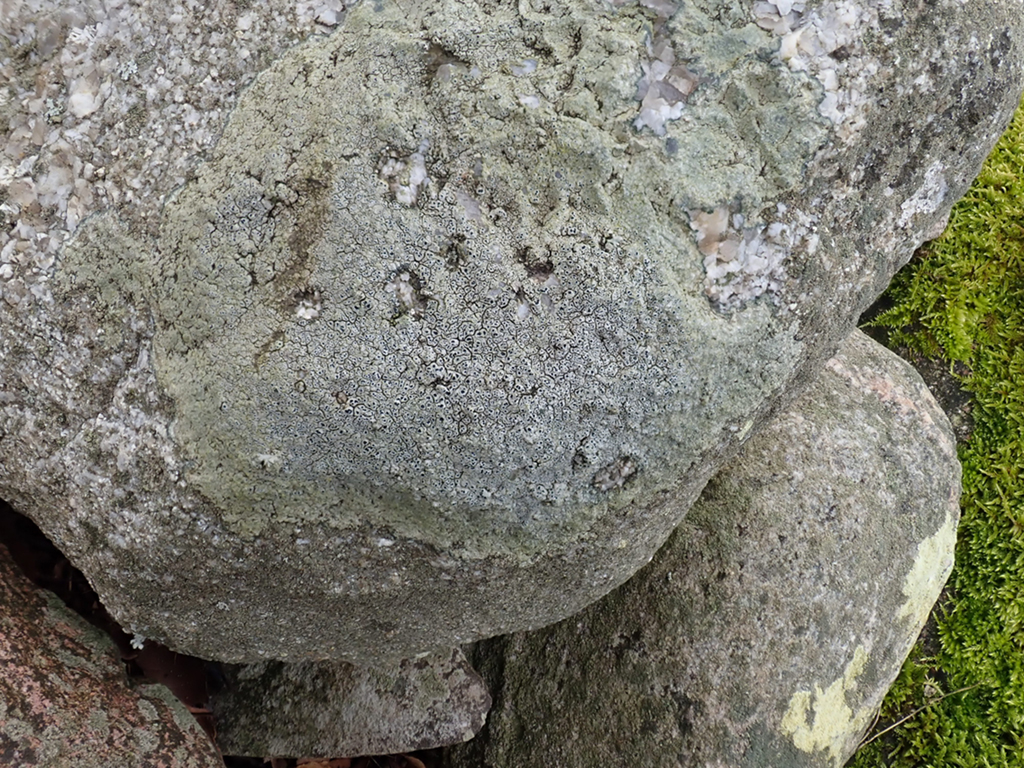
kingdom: Fungi
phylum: Ascomycota
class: Lecanoromycetes
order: Pertusariales
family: Megasporaceae
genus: Circinaria
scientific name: Circinaria caesiocinerea
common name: fuglestens-hulskivelav
